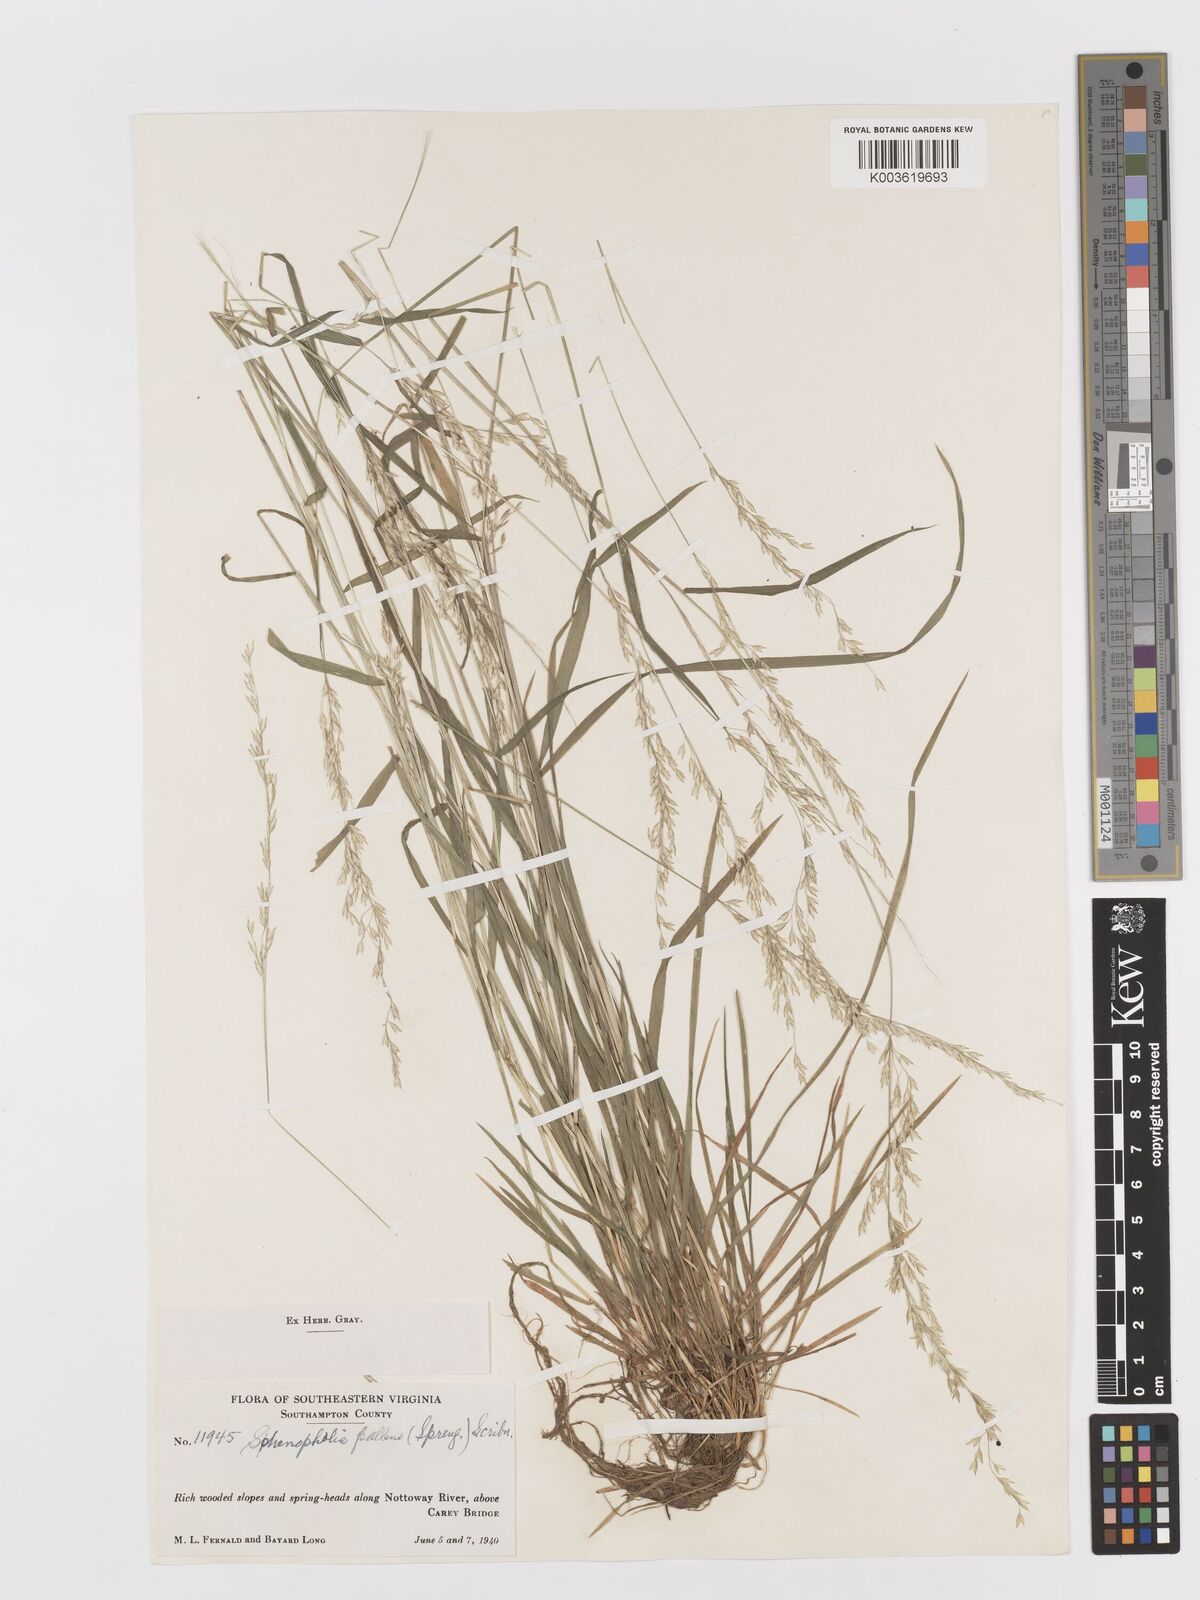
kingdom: Plantae
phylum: Tracheophyta
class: Liliopsida
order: Poales
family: Poaceae
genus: Sphenopholis
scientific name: Sphenopholis obtusata
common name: Prairie grass
